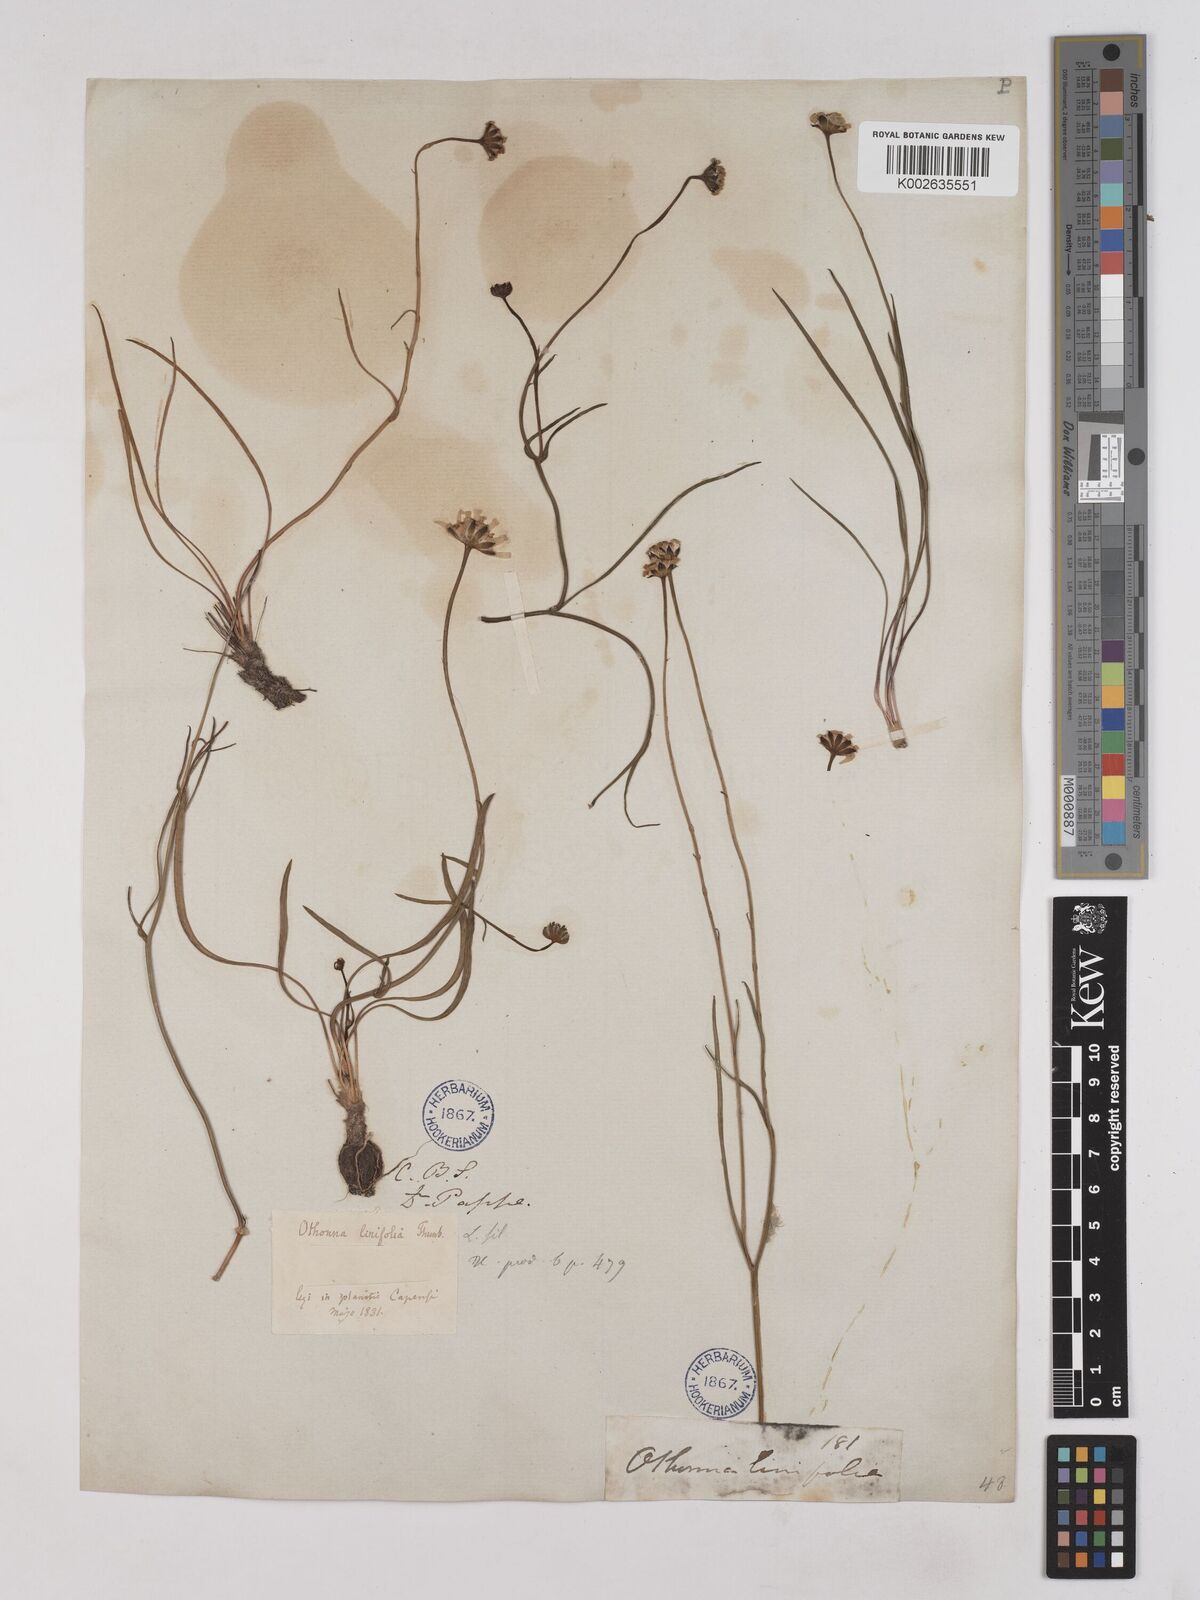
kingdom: Plantae
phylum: Tracheophyta
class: Magnoliopsida
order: Asterales
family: Asteraceae
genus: Othonna
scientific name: Othonna stenophylla
